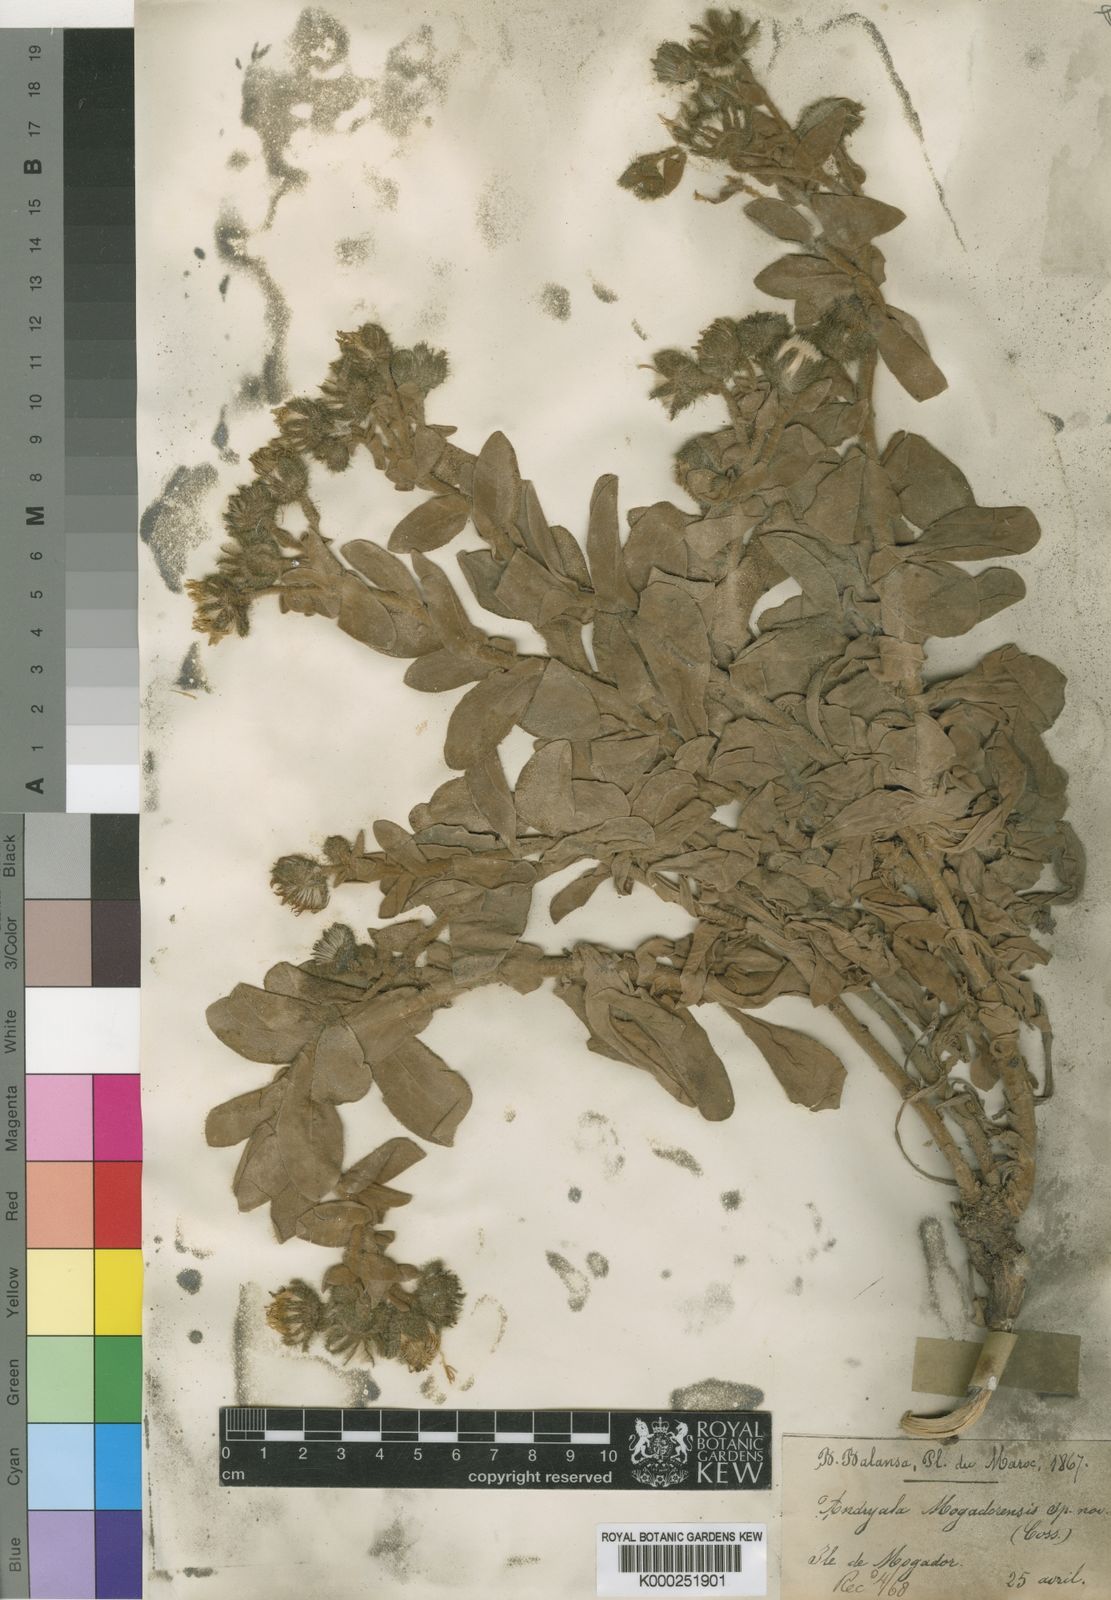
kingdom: Plantae
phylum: Tracheophyta
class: Magnoliopsida
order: Asterales
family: Asteraceae
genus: Andryala
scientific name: Andryala mogadorensis
